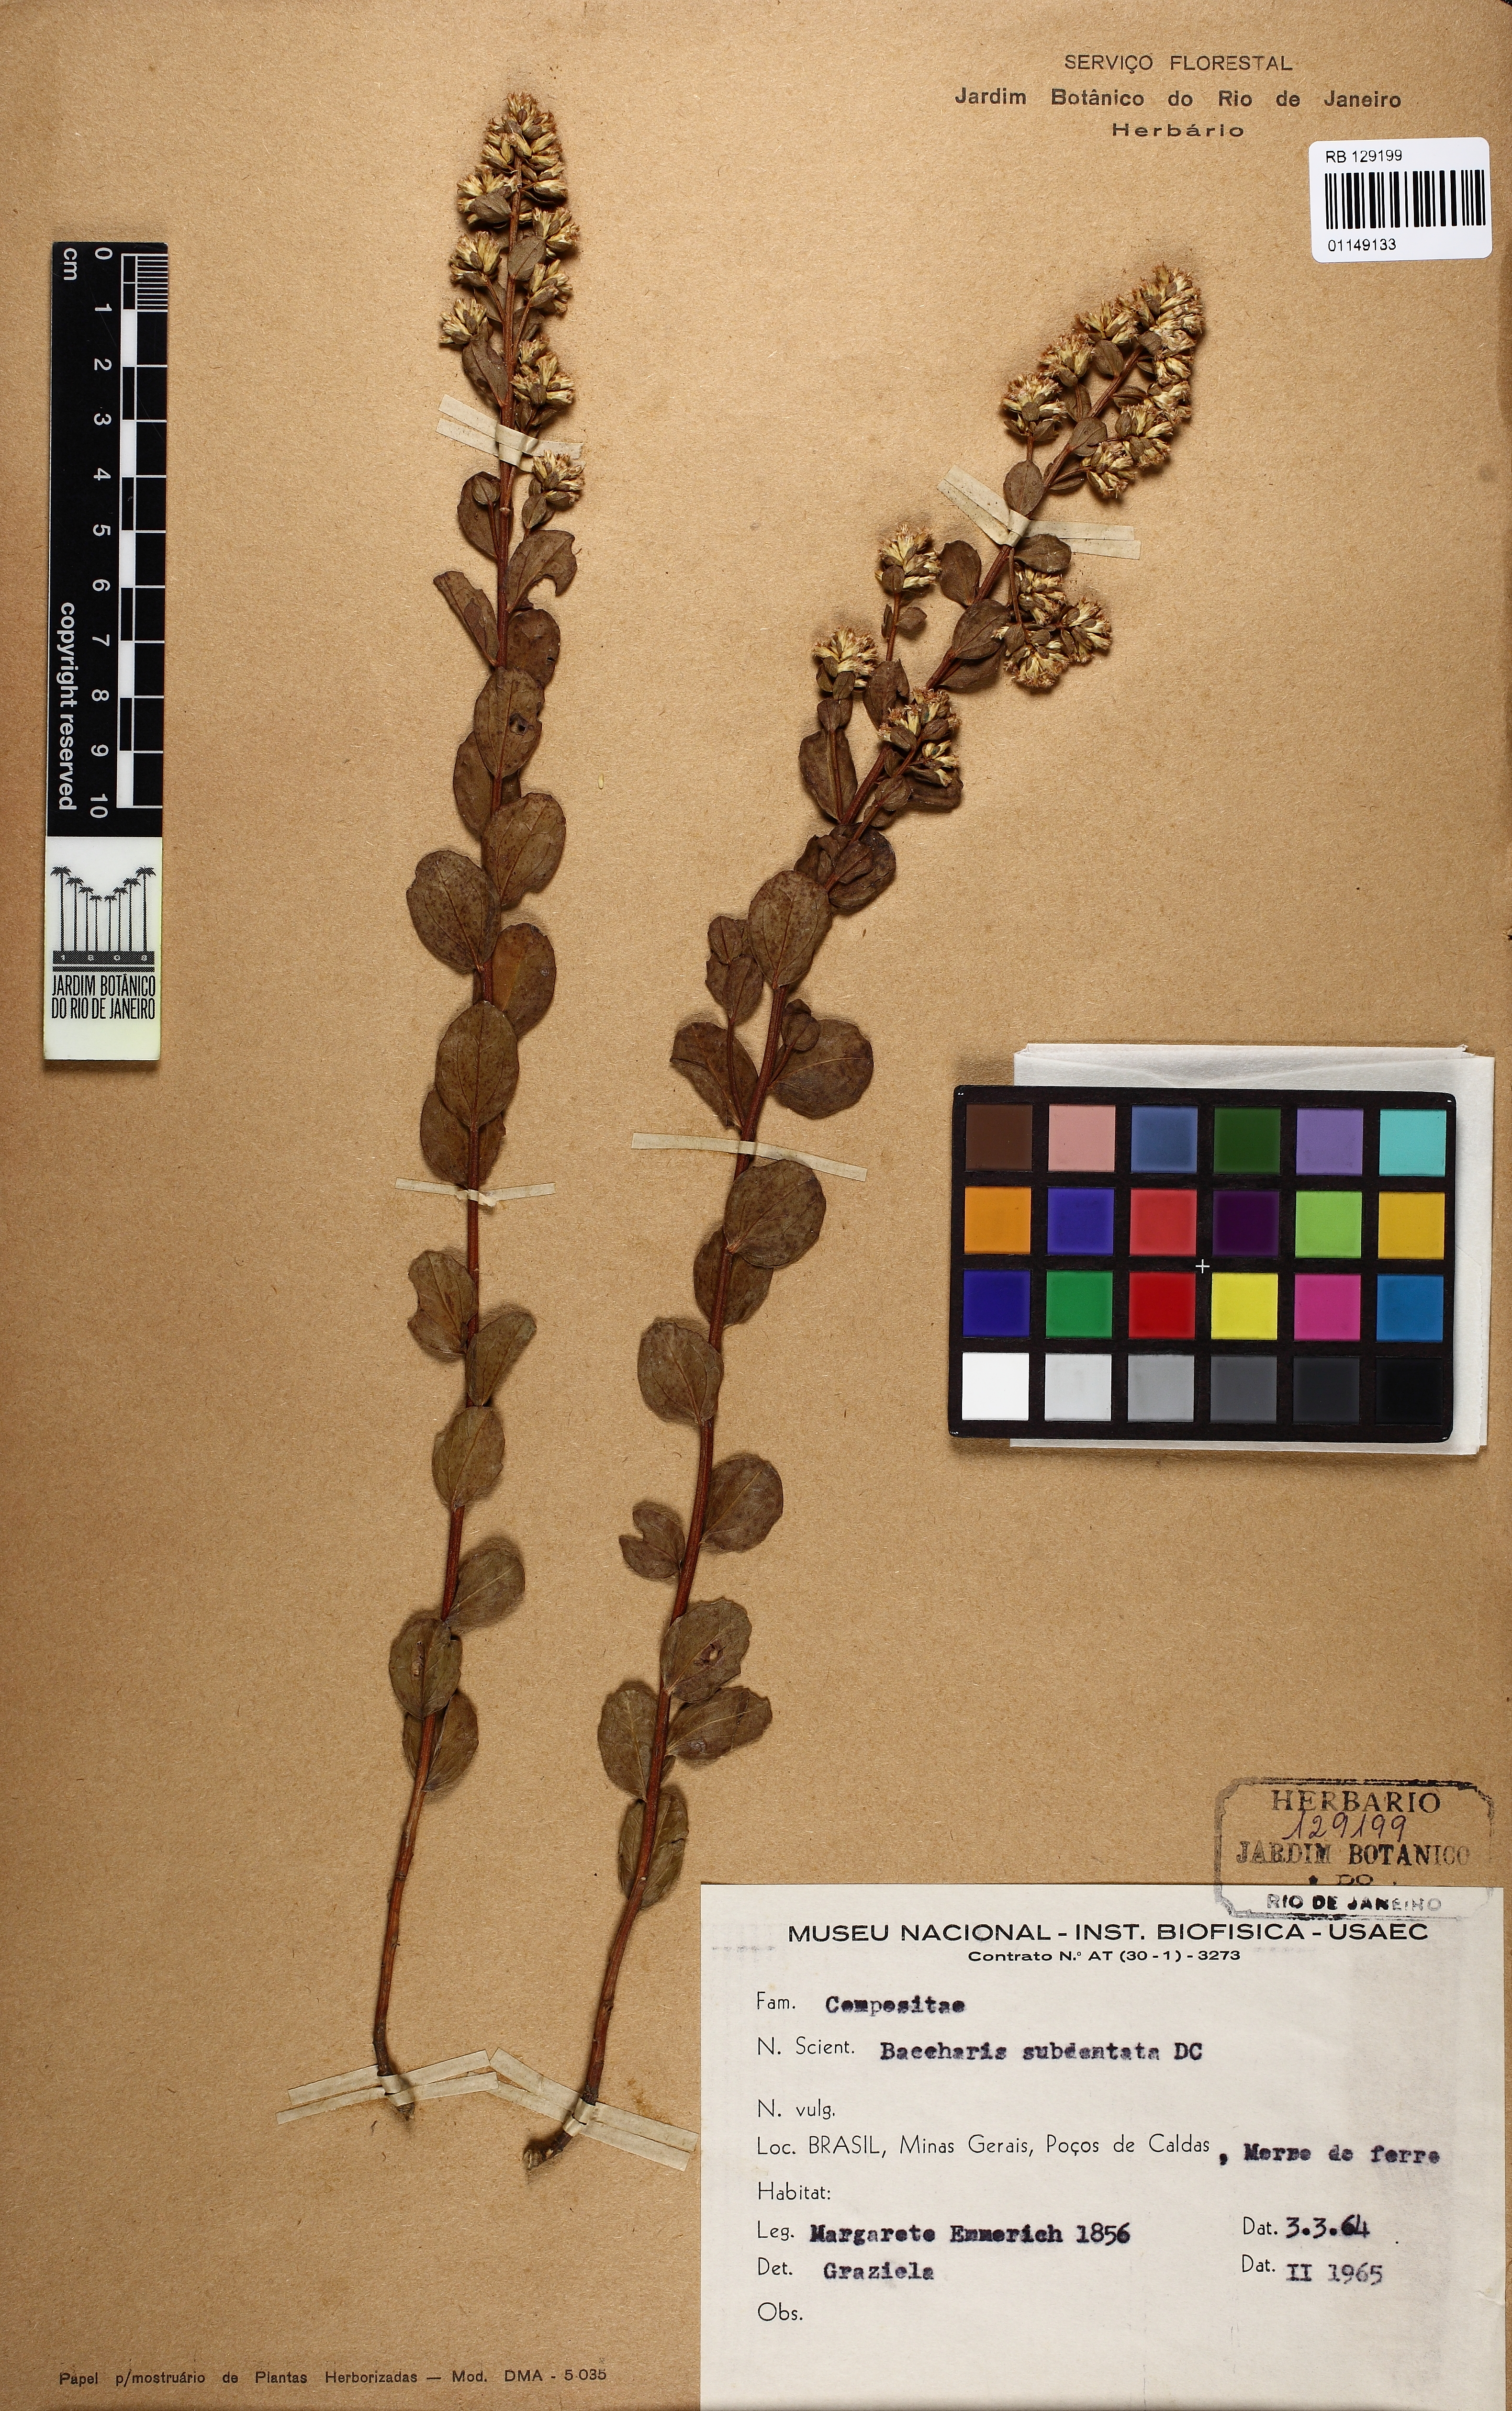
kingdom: Plantae
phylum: Tracheophyta
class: Magnoliopsida
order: Asterales
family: Asteraceae
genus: Baccharis
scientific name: Baccharis subdentata
